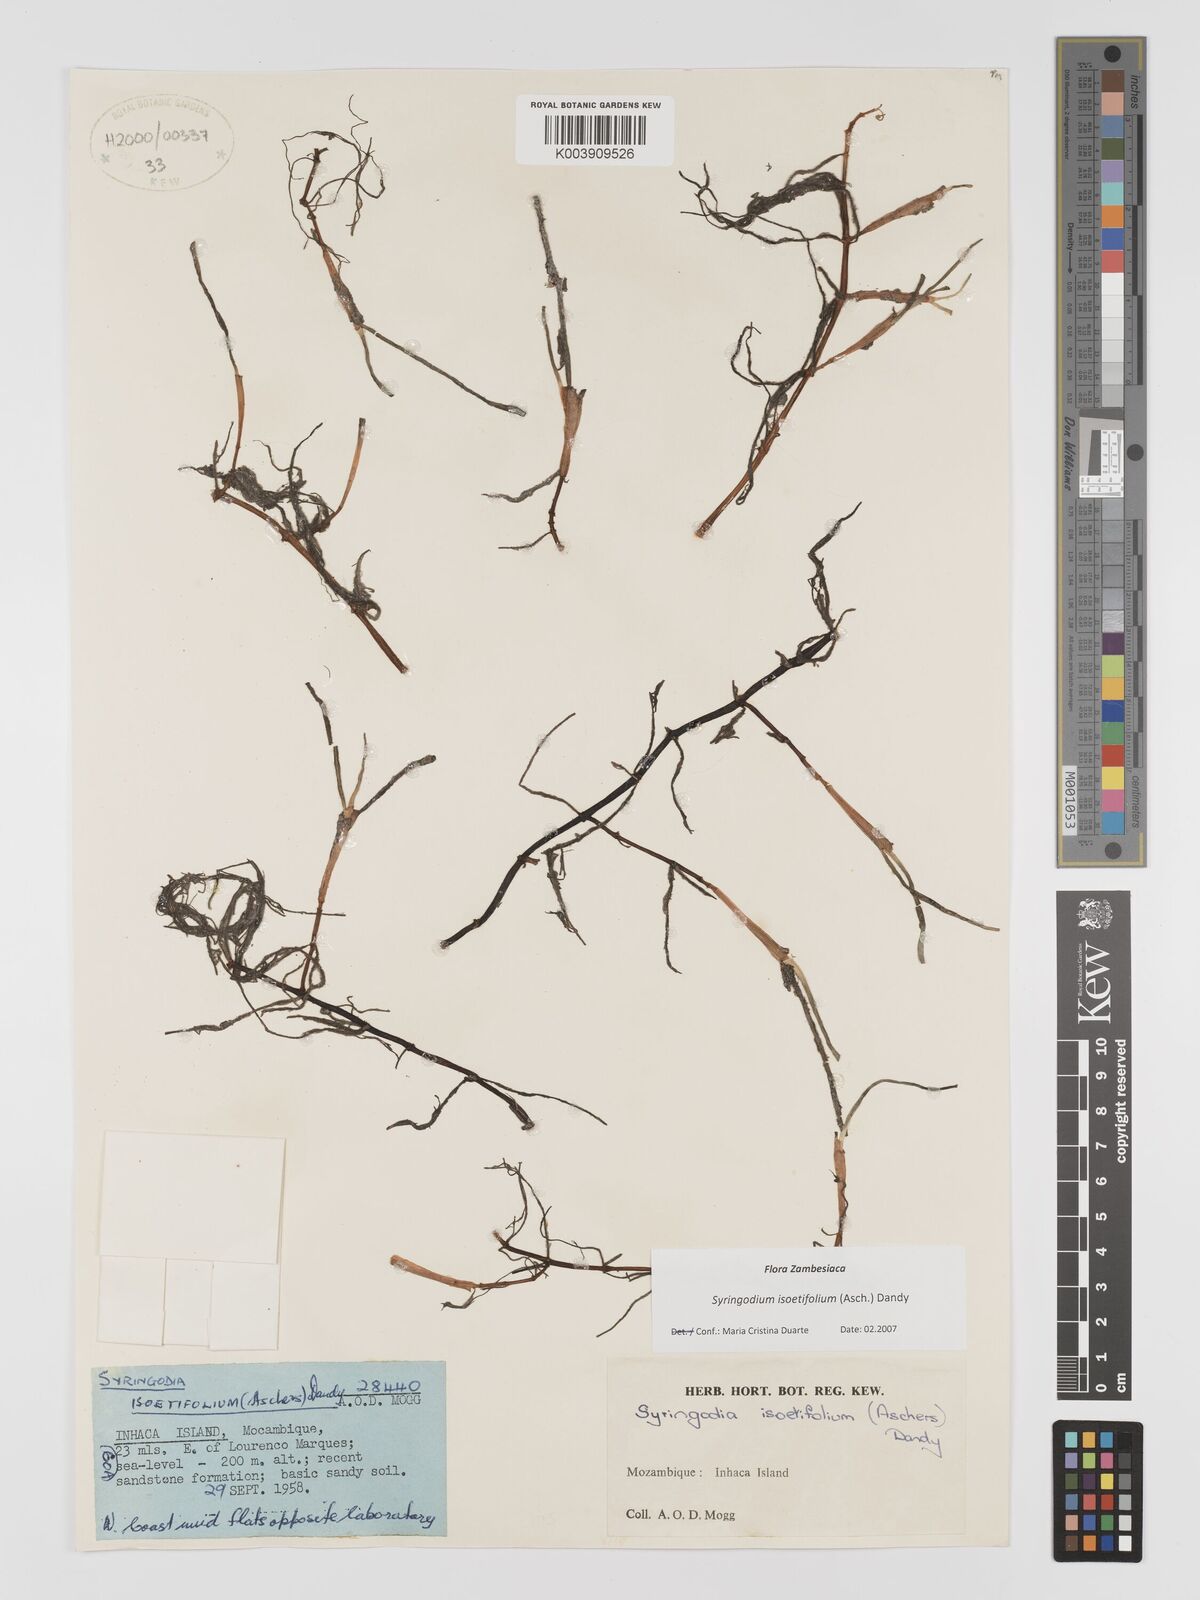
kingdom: Plantae
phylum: Tracheophyta
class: Liliopsida
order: Alismatales
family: Cymodoceaceae
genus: Syringodium
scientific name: Syringodium isoetifolium
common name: Species code: si
